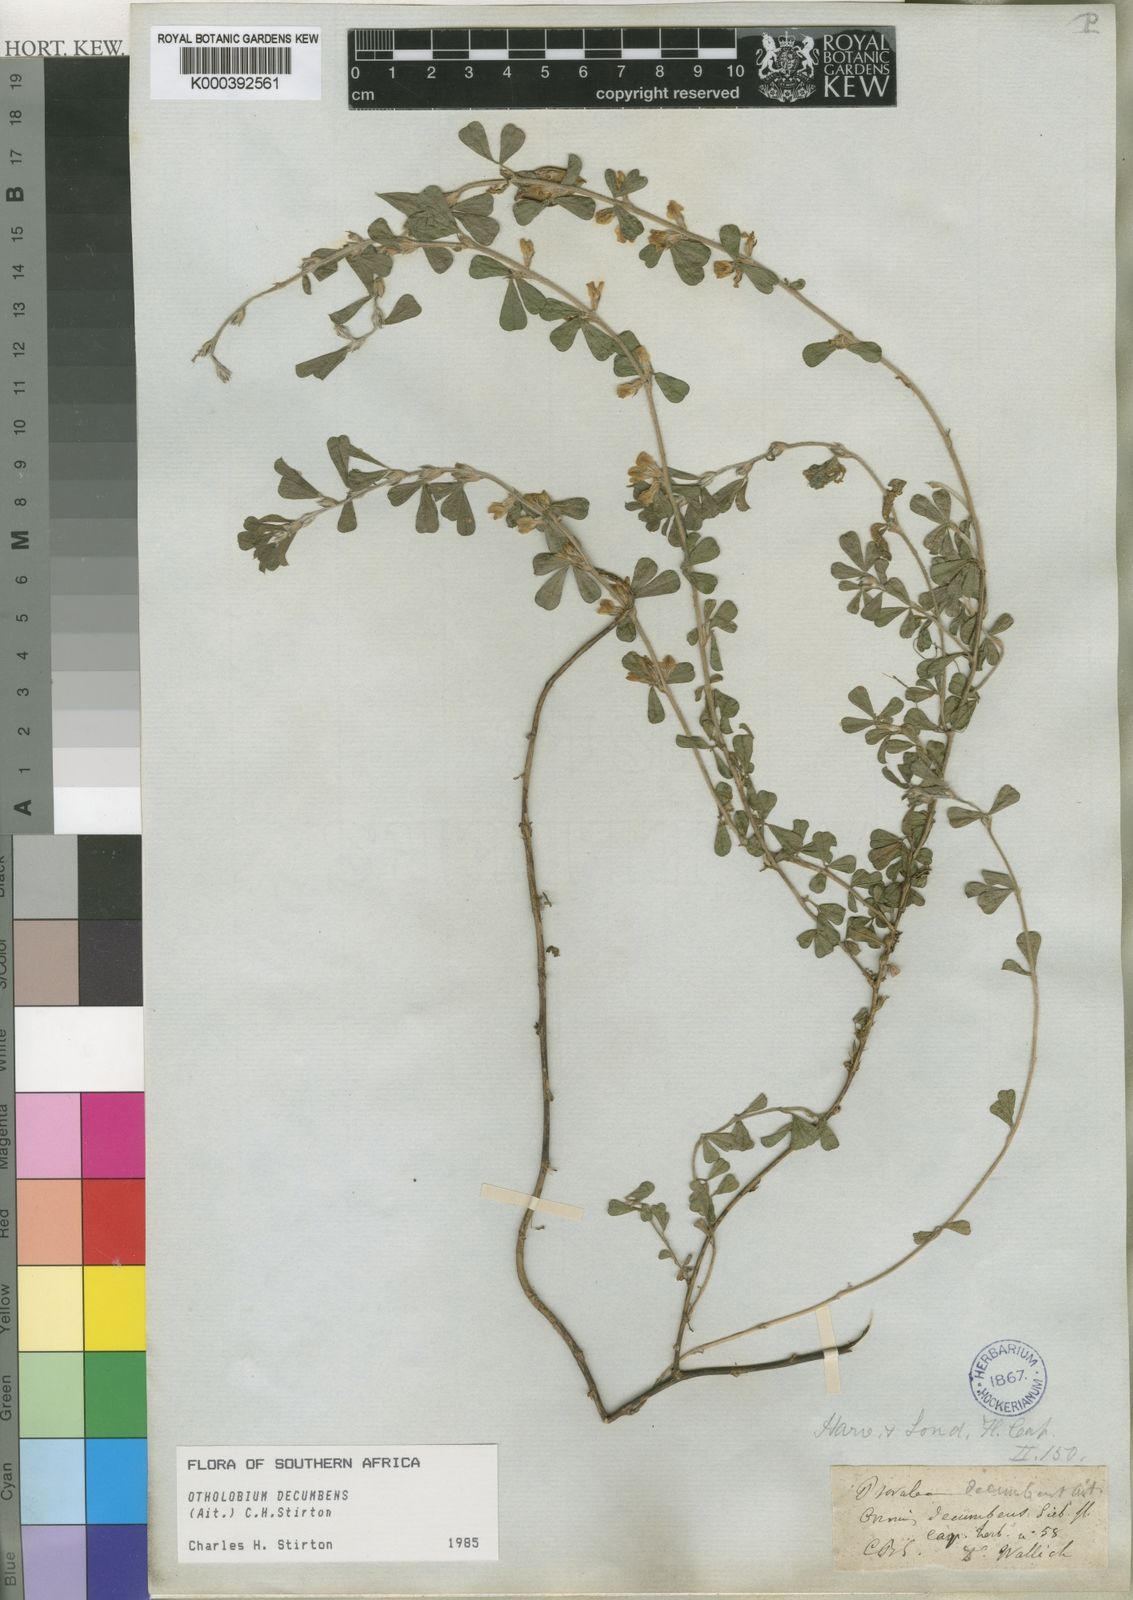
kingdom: Plantae
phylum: Tracheophyta
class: Magnoliopsida
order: Fabales
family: Fabaceae
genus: Psoralea
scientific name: Psoralea Otholobium decumbens
